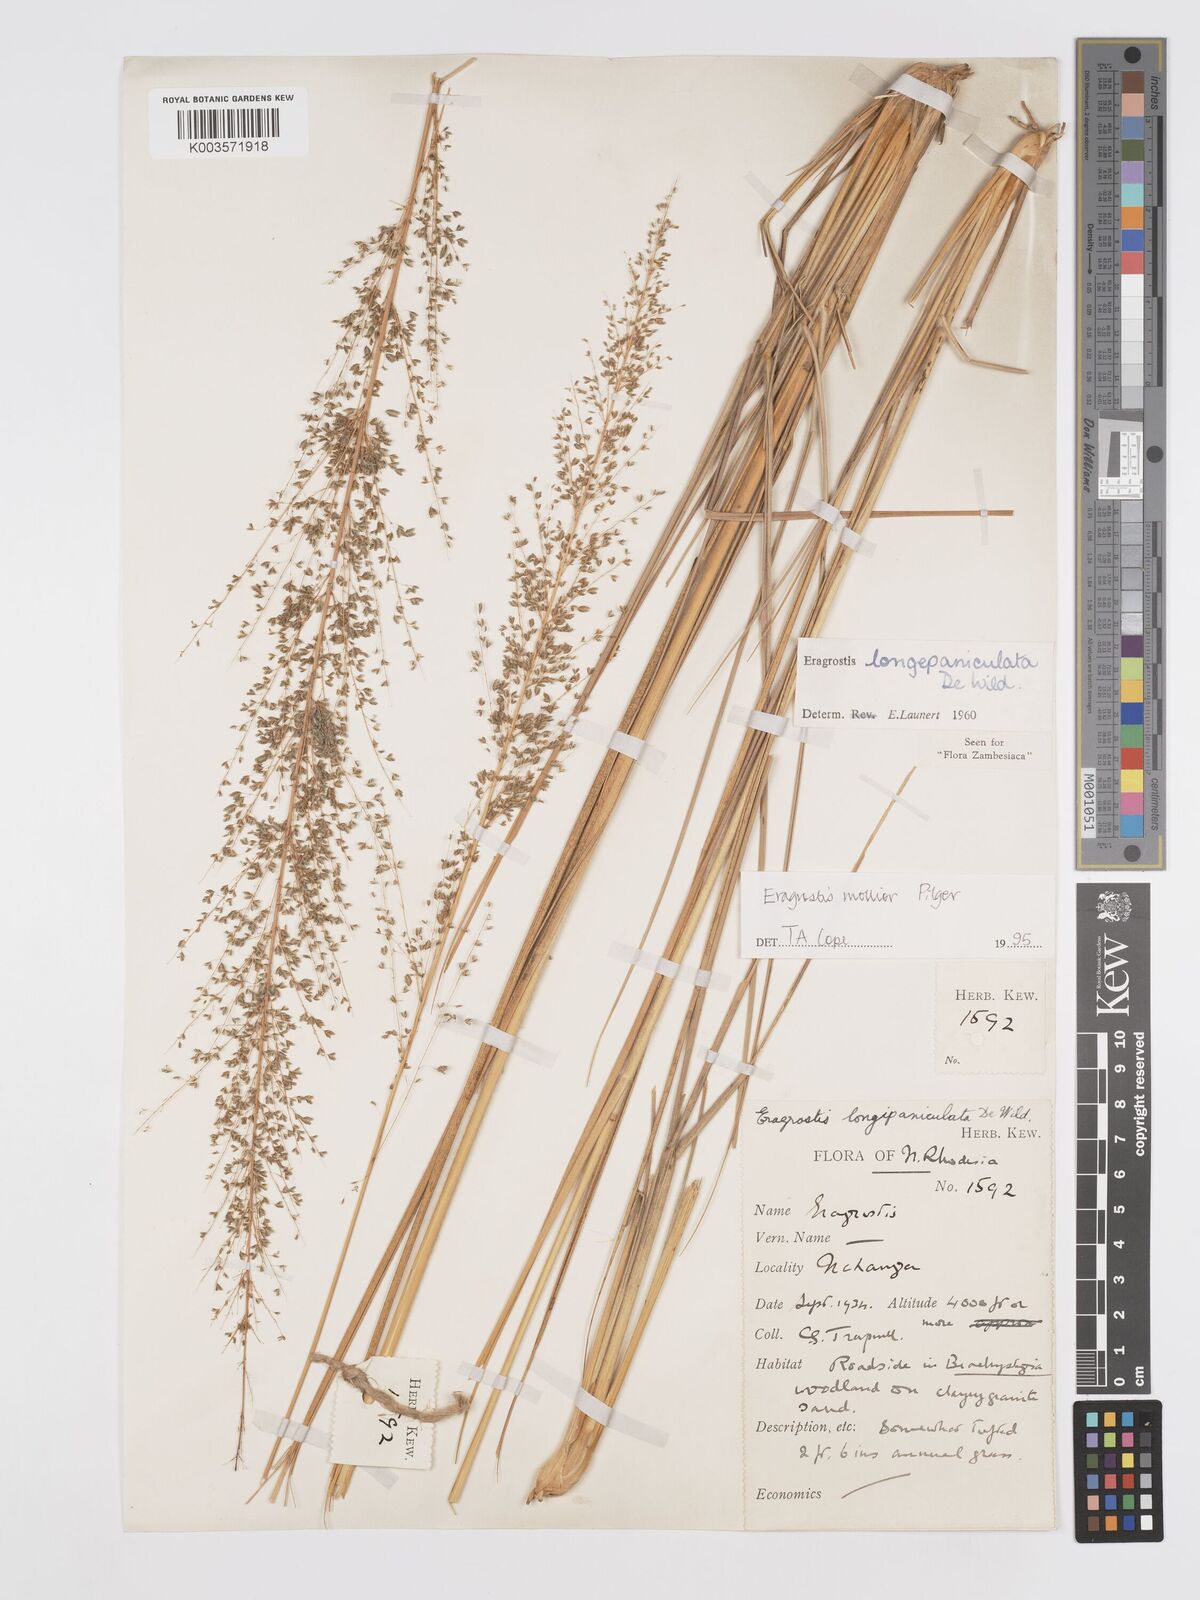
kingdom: Plantae
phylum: Tracheophyta
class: Liliopsida
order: Poales
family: Poaceae
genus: Eragrostis
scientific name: Eragrostis mollior
